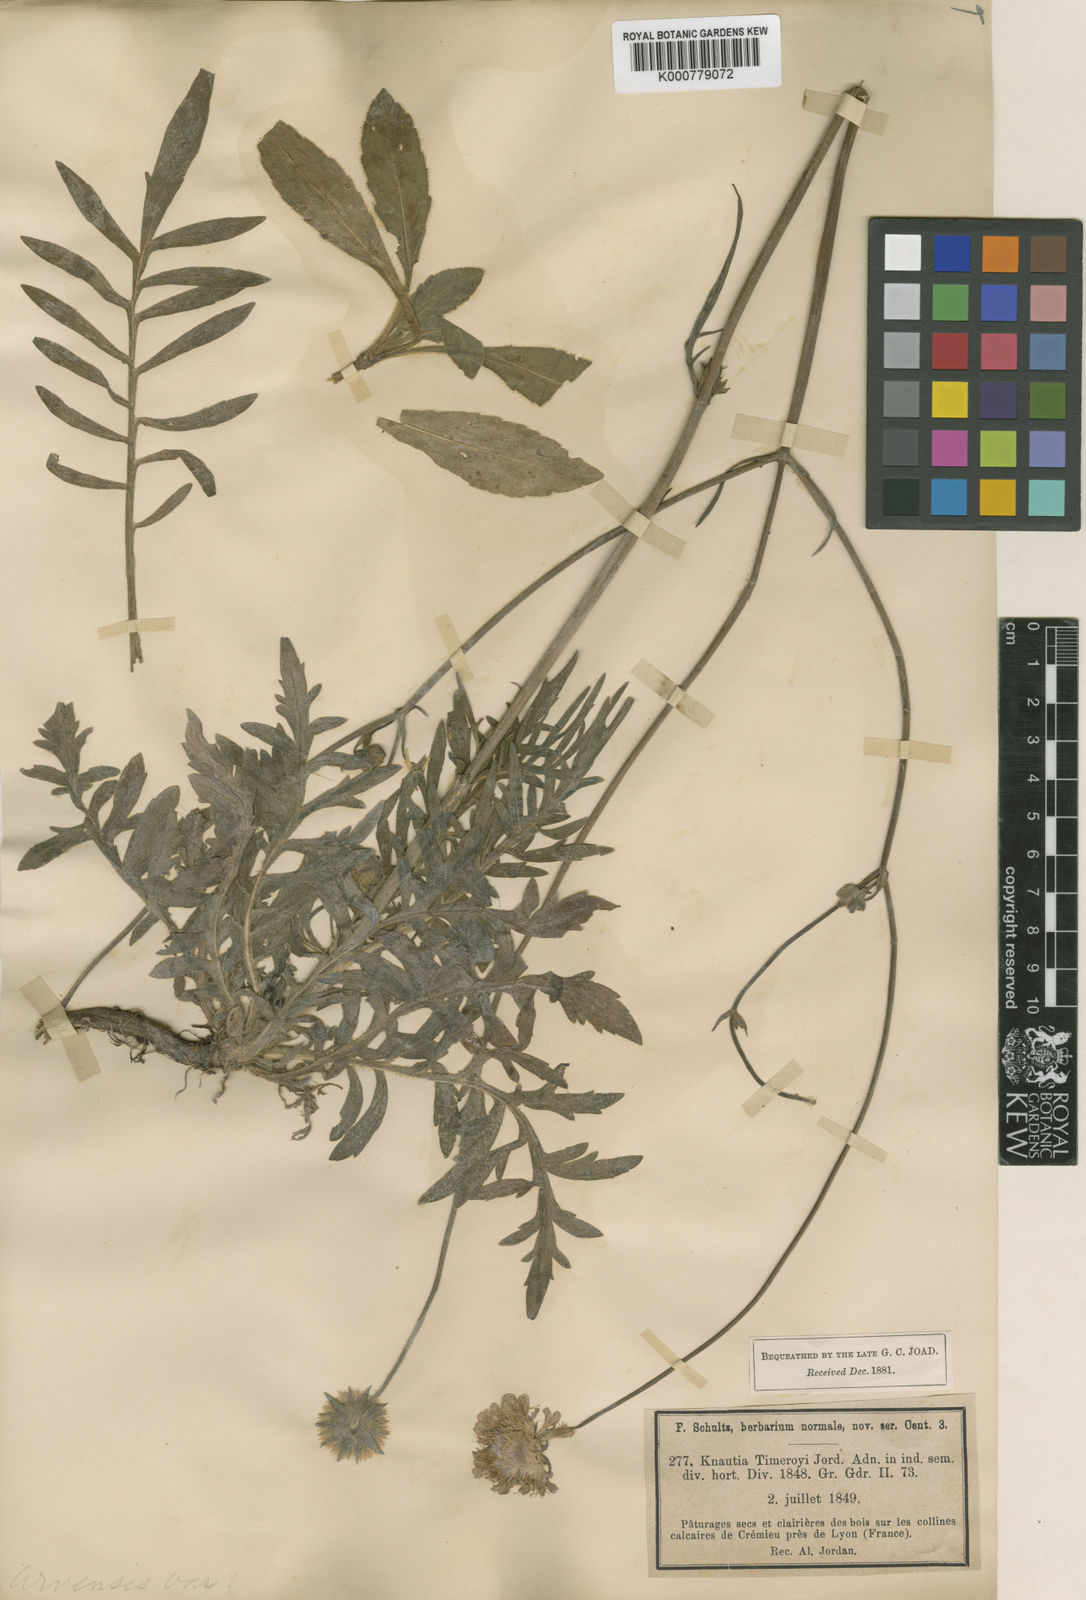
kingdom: Plantae
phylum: Tracheophyta
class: Magnoliopsida
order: Dipsacales
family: Caprifoliaceae
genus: Knautia
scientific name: Knautia arvensis
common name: Field scabiosa
